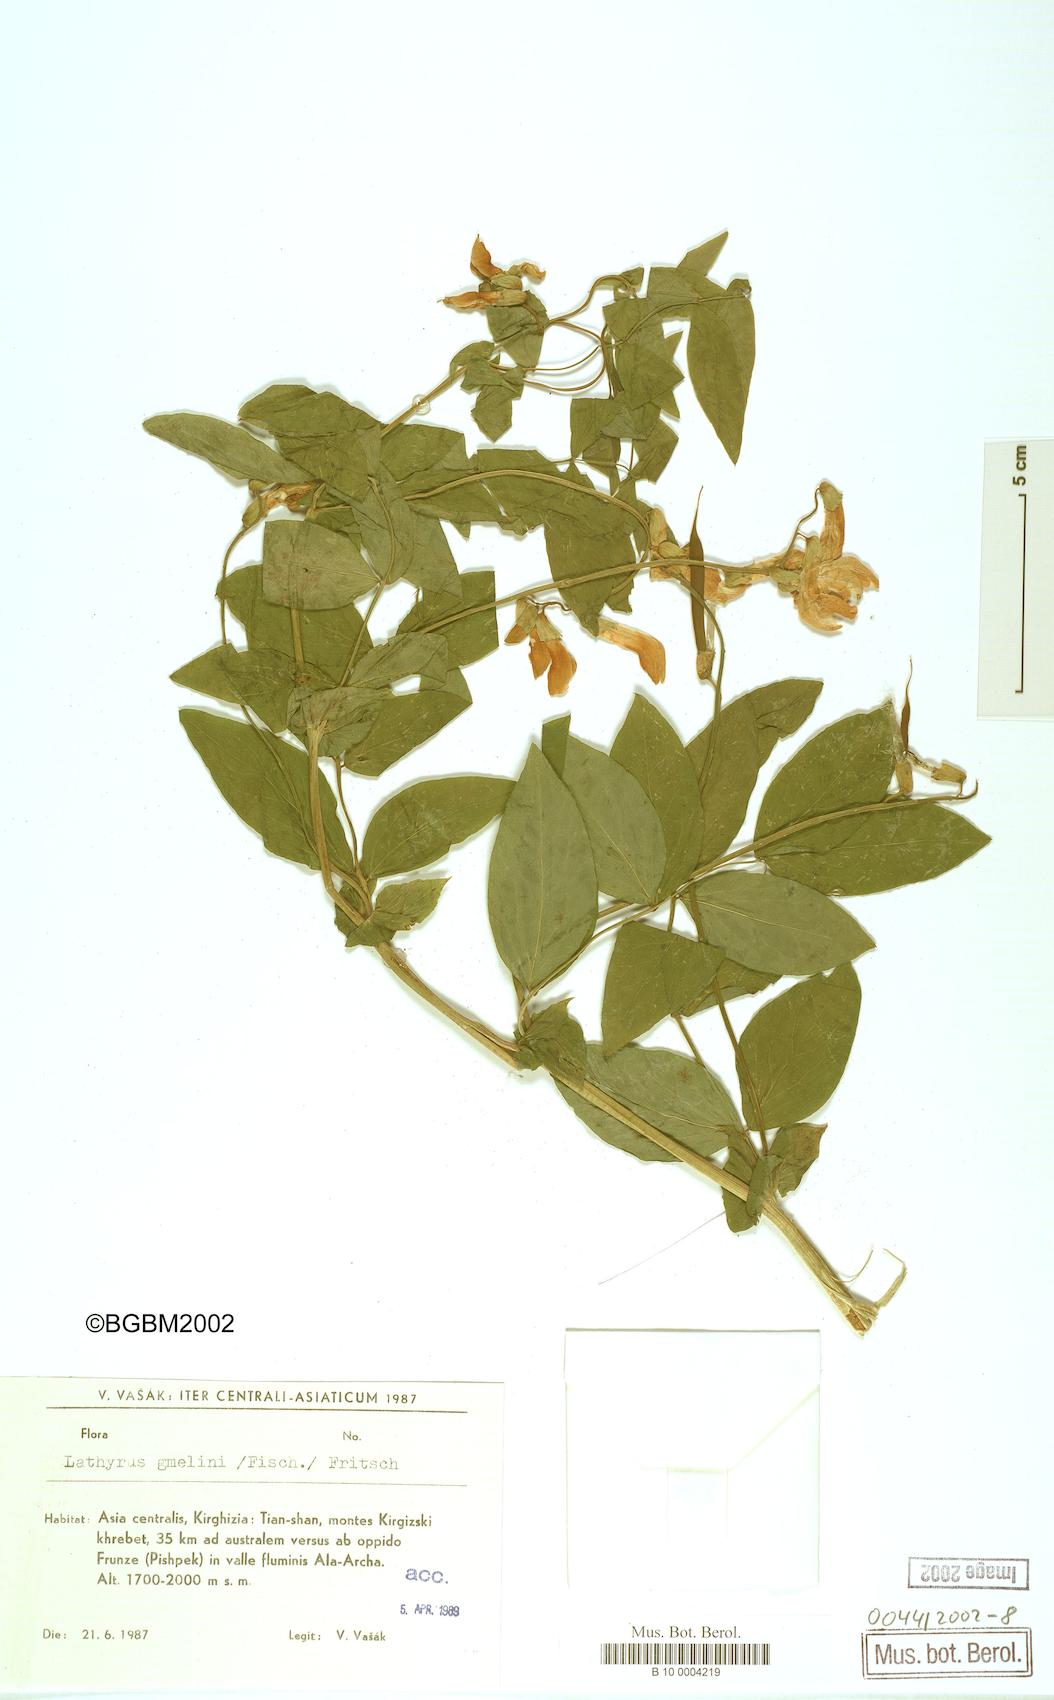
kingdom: Plantae
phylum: Tracheophyta
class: Magnoliopsida
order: Fabales
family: Fabaceae
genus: Lathyrus
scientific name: Lathyrus gmelinii
